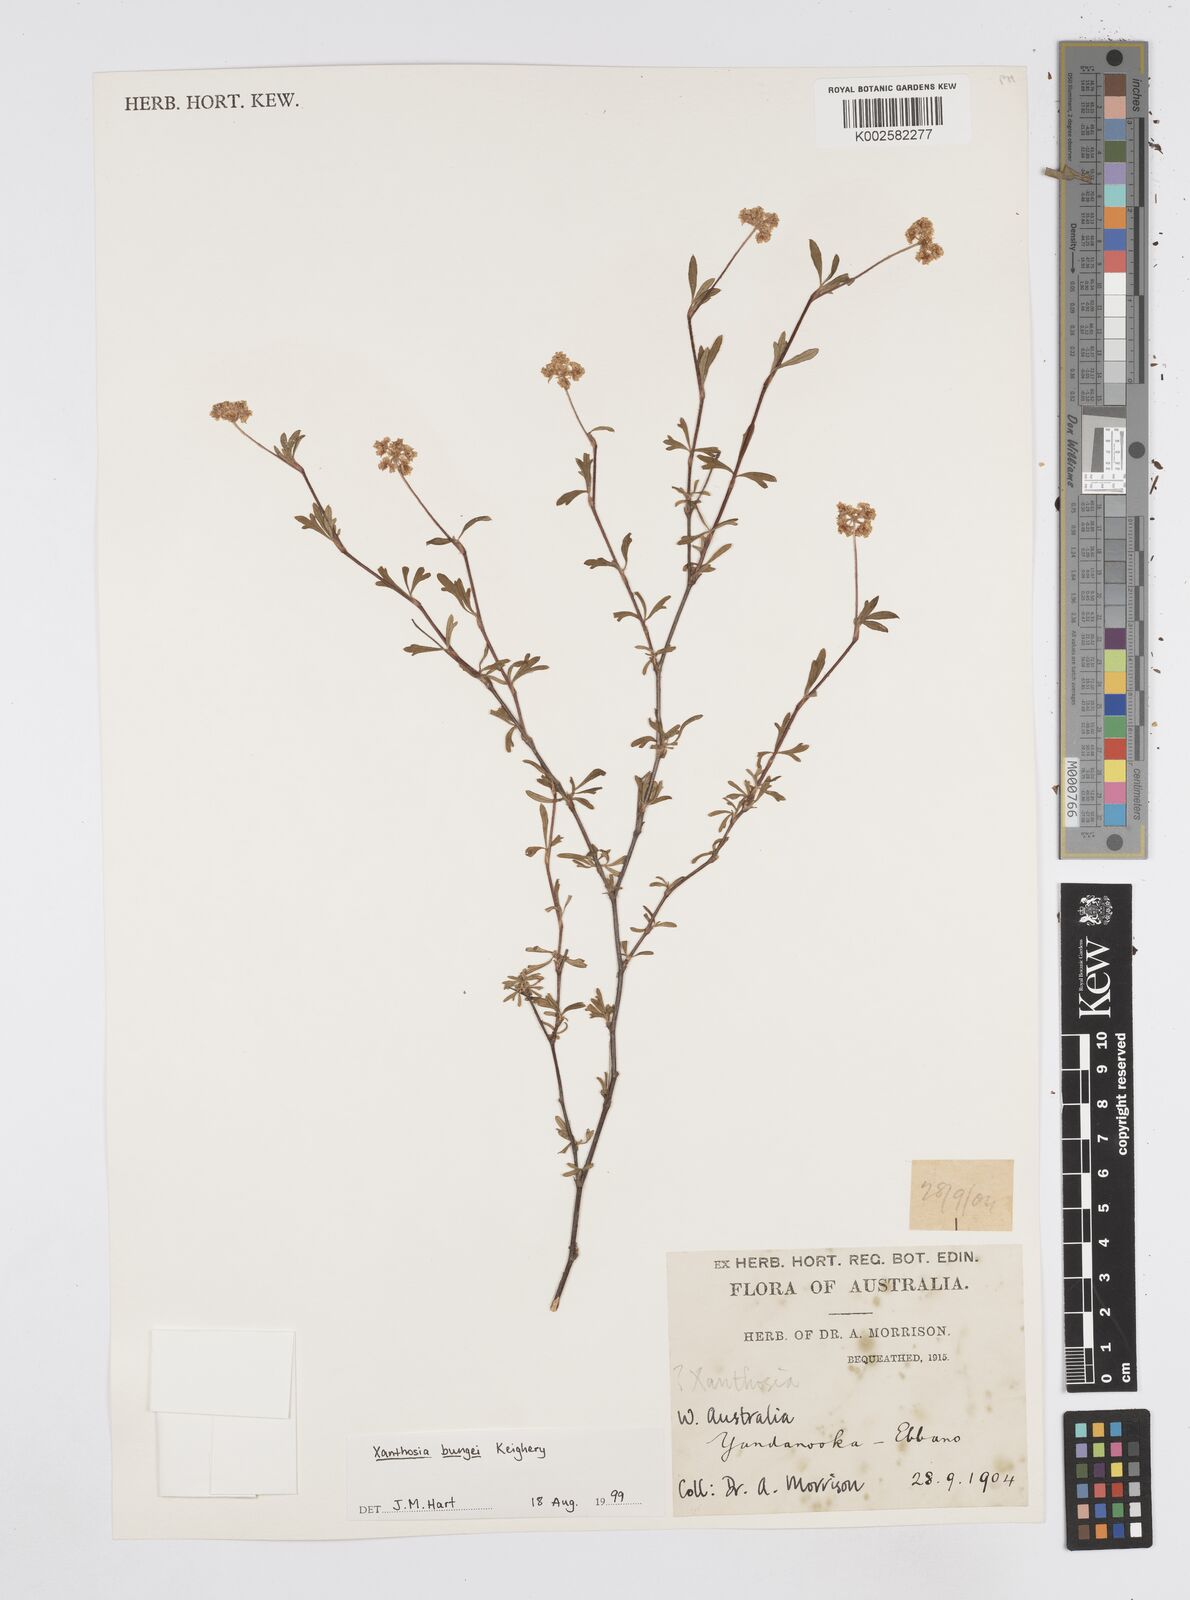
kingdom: Plantae
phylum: Tracheophyta
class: Magnoliopsida
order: Apiales
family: Apiaceae
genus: Xanthosia
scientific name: Xanthosia kochii
